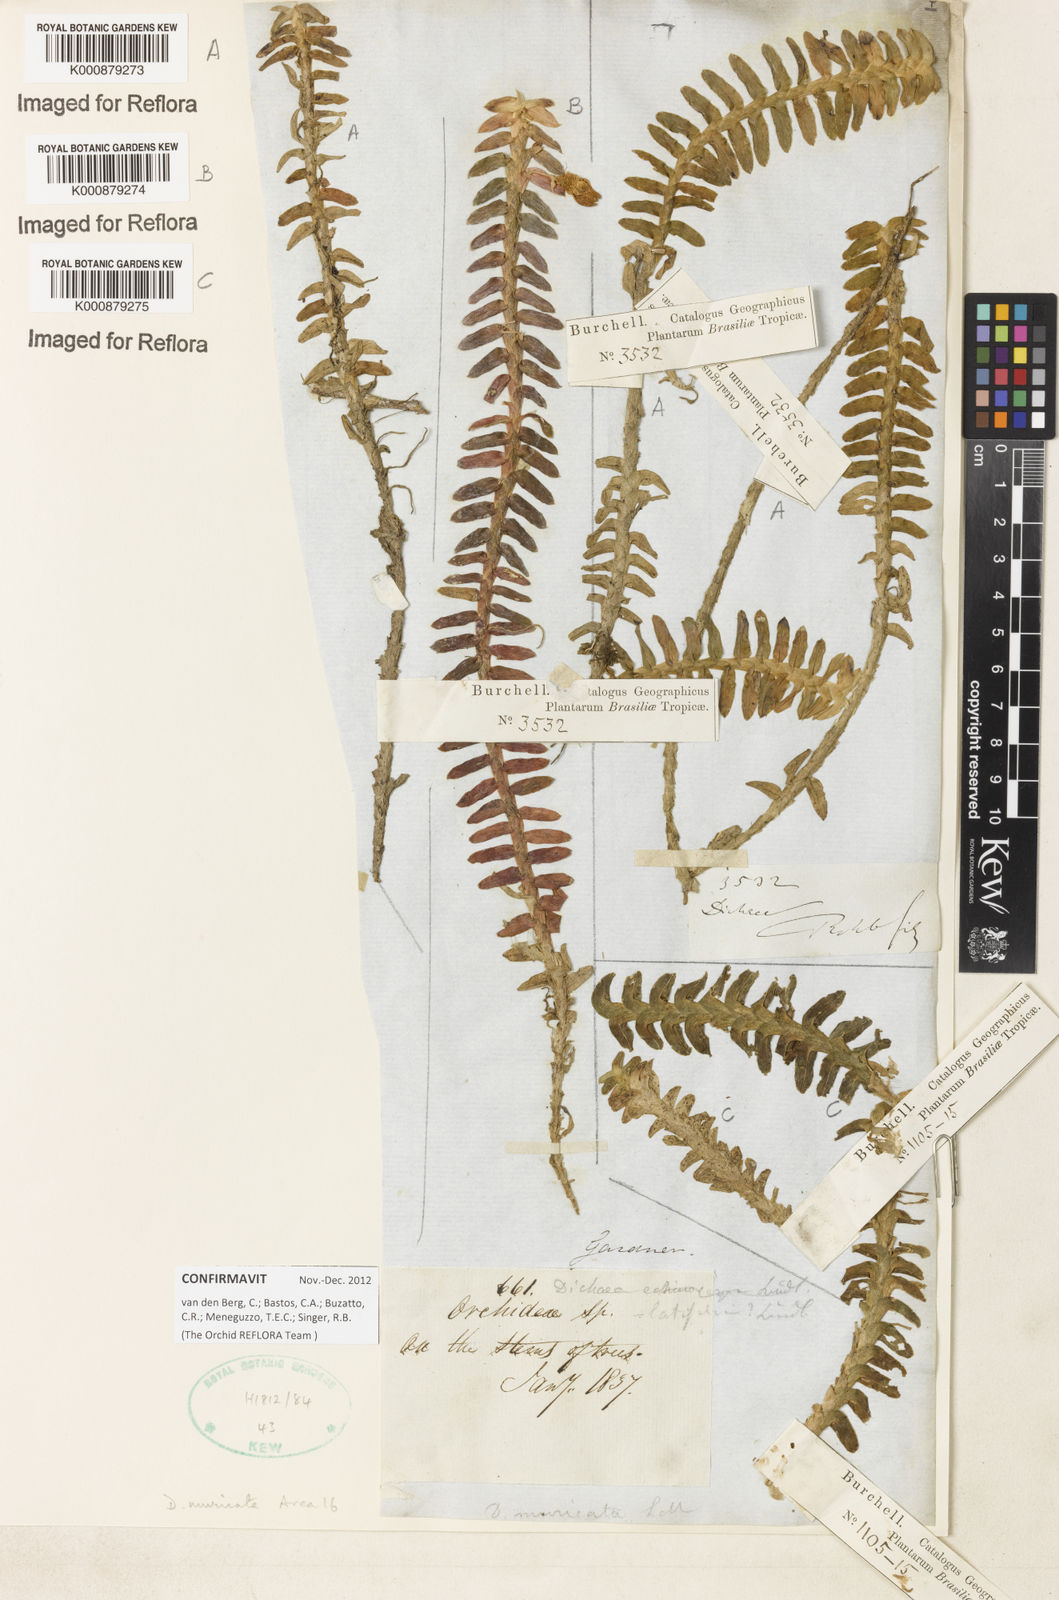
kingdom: Plantae
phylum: Tracheophyta
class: Liliopsida
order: Asparagales
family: Orchidaceae
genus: Dichaea
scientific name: Dichaea morrisii
